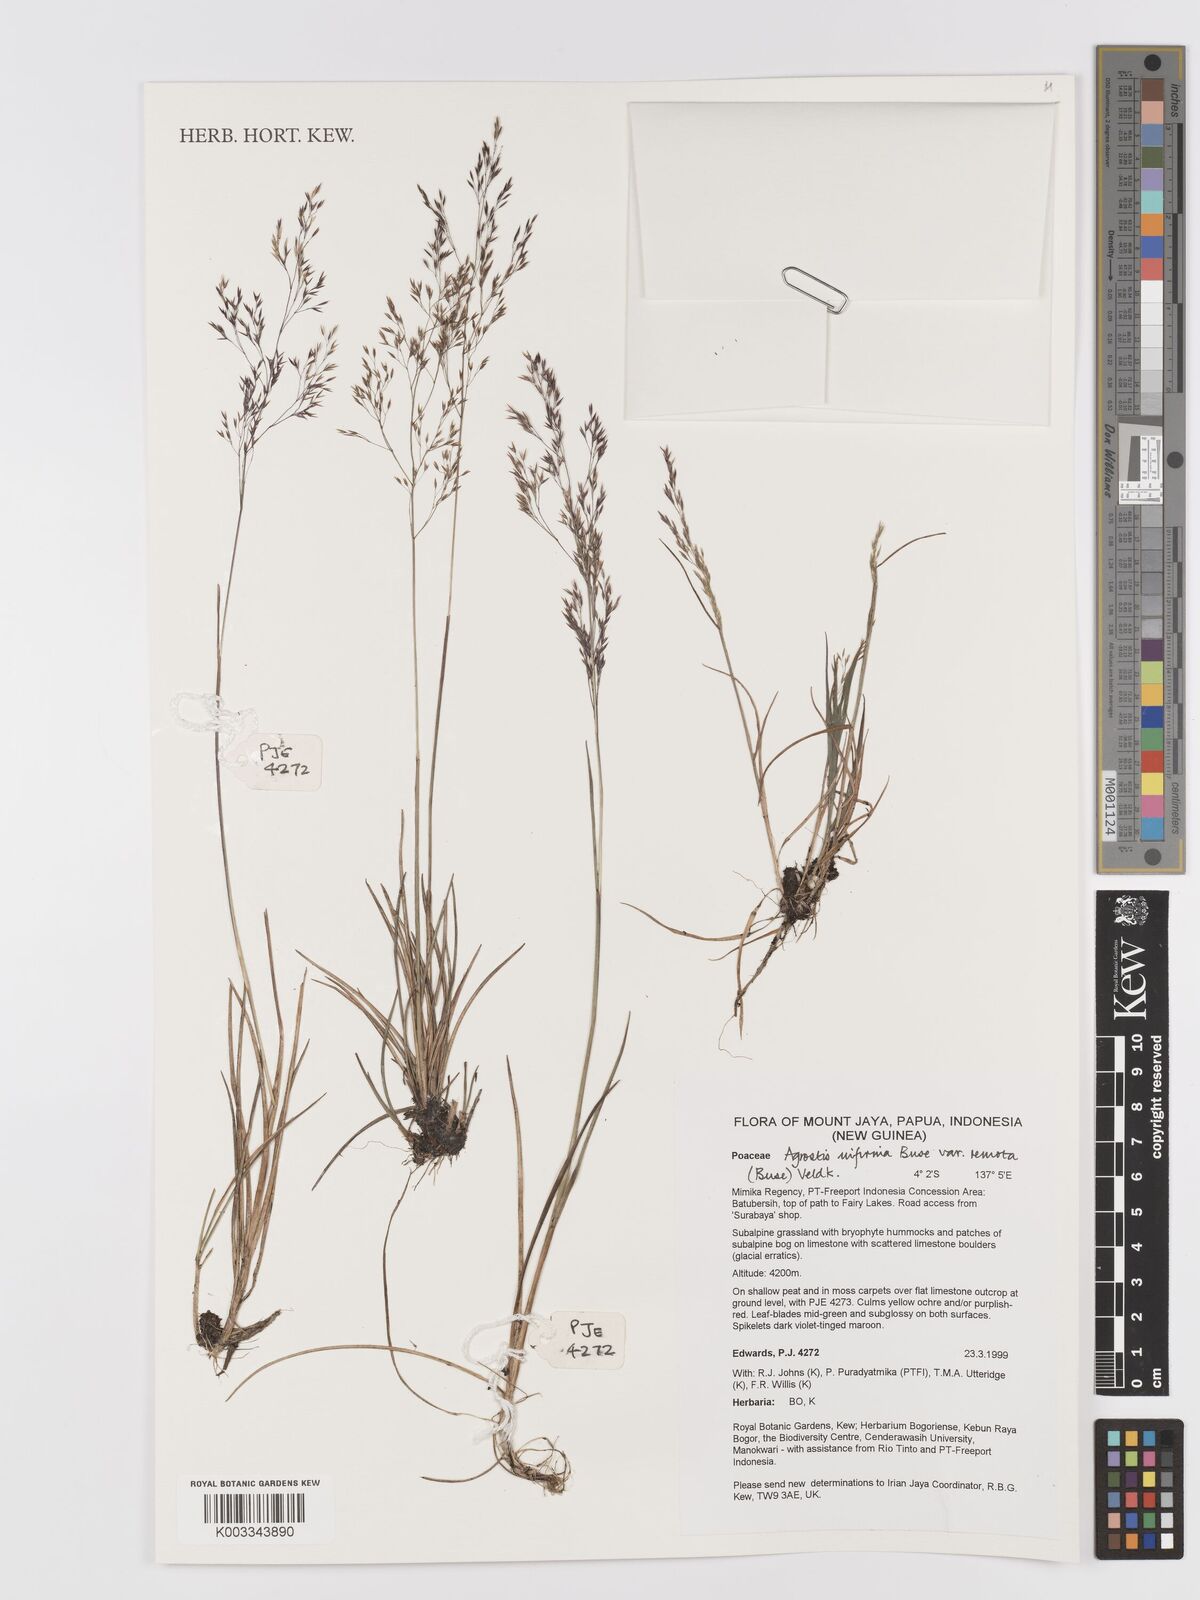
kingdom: Plantae
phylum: Tracheophyta
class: Liliopsida
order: Poales
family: Poaceae
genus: Agrostis
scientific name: Agrostis infirma
